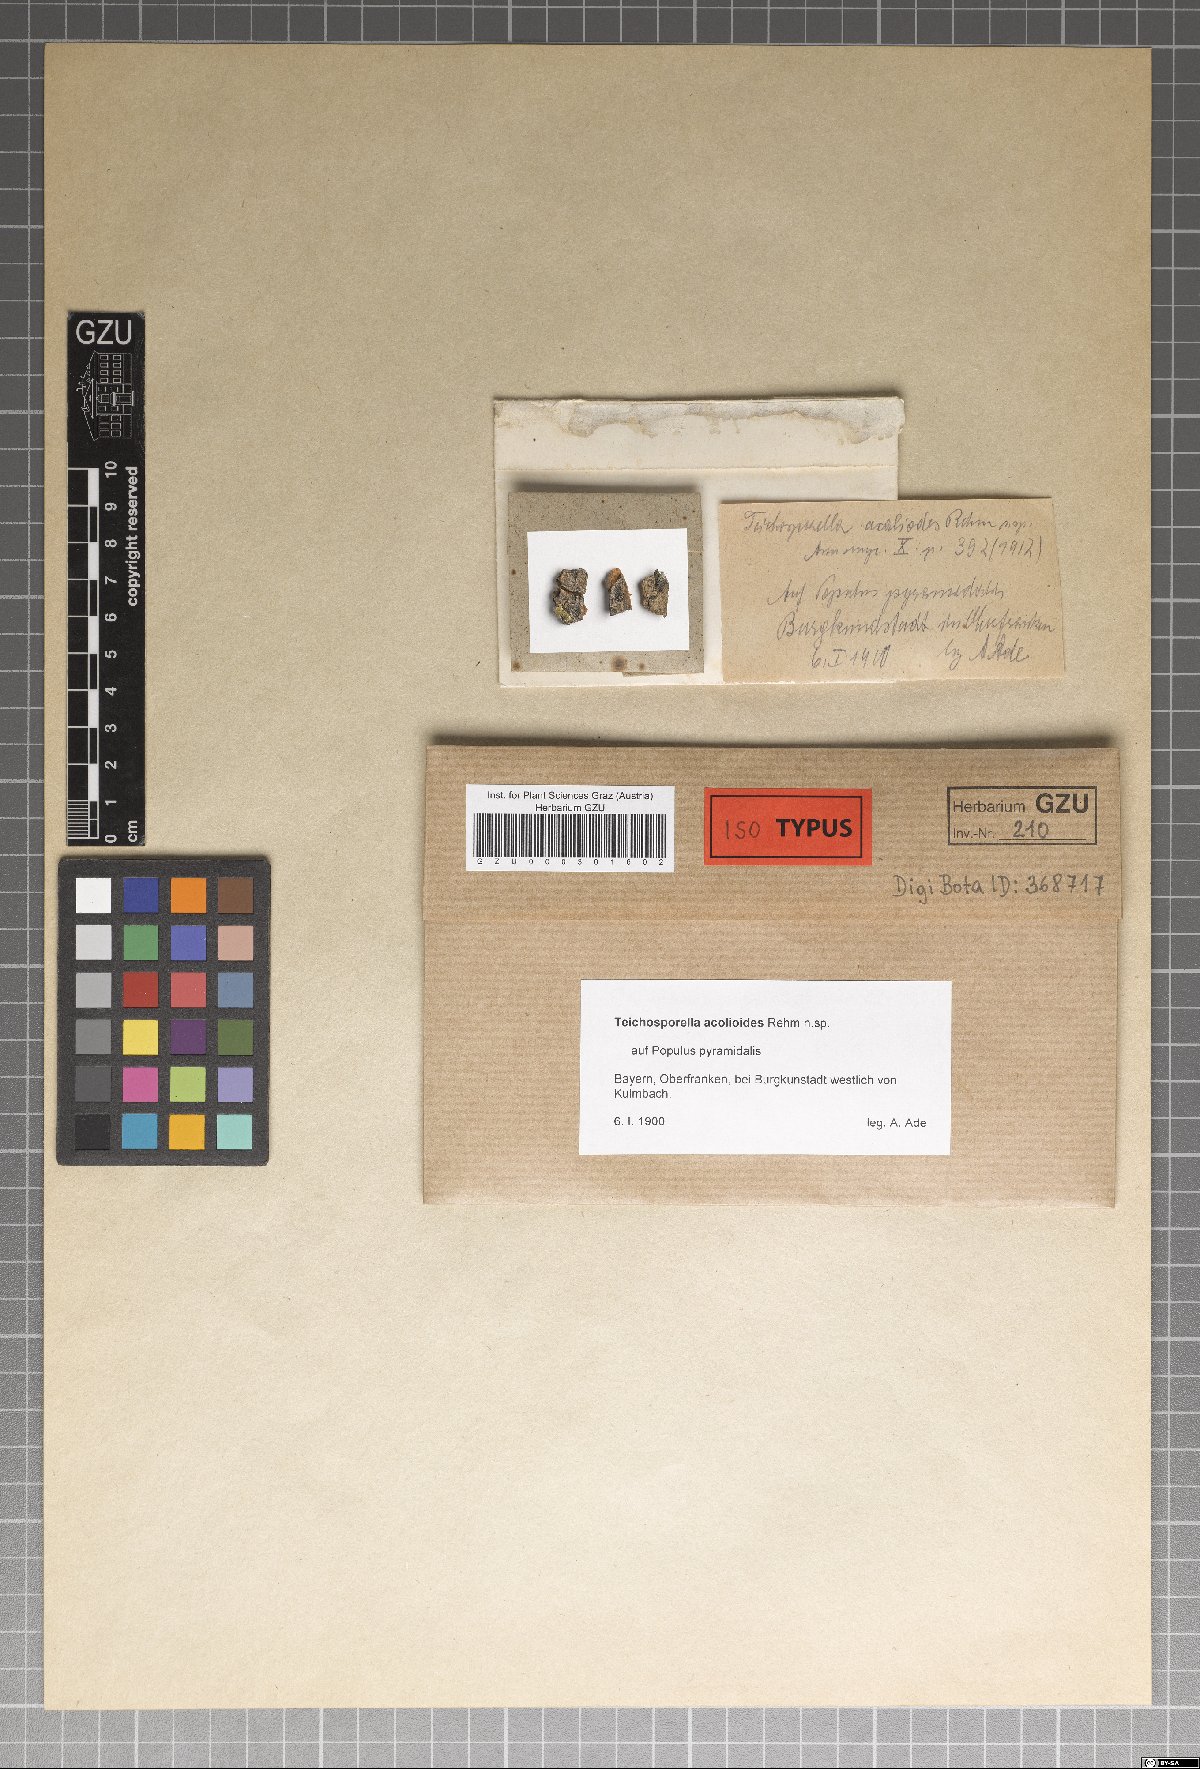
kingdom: Fungi
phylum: Ascomycota
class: Dothideomycetes
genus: Teichosporella
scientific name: Teichosporella acolioides
